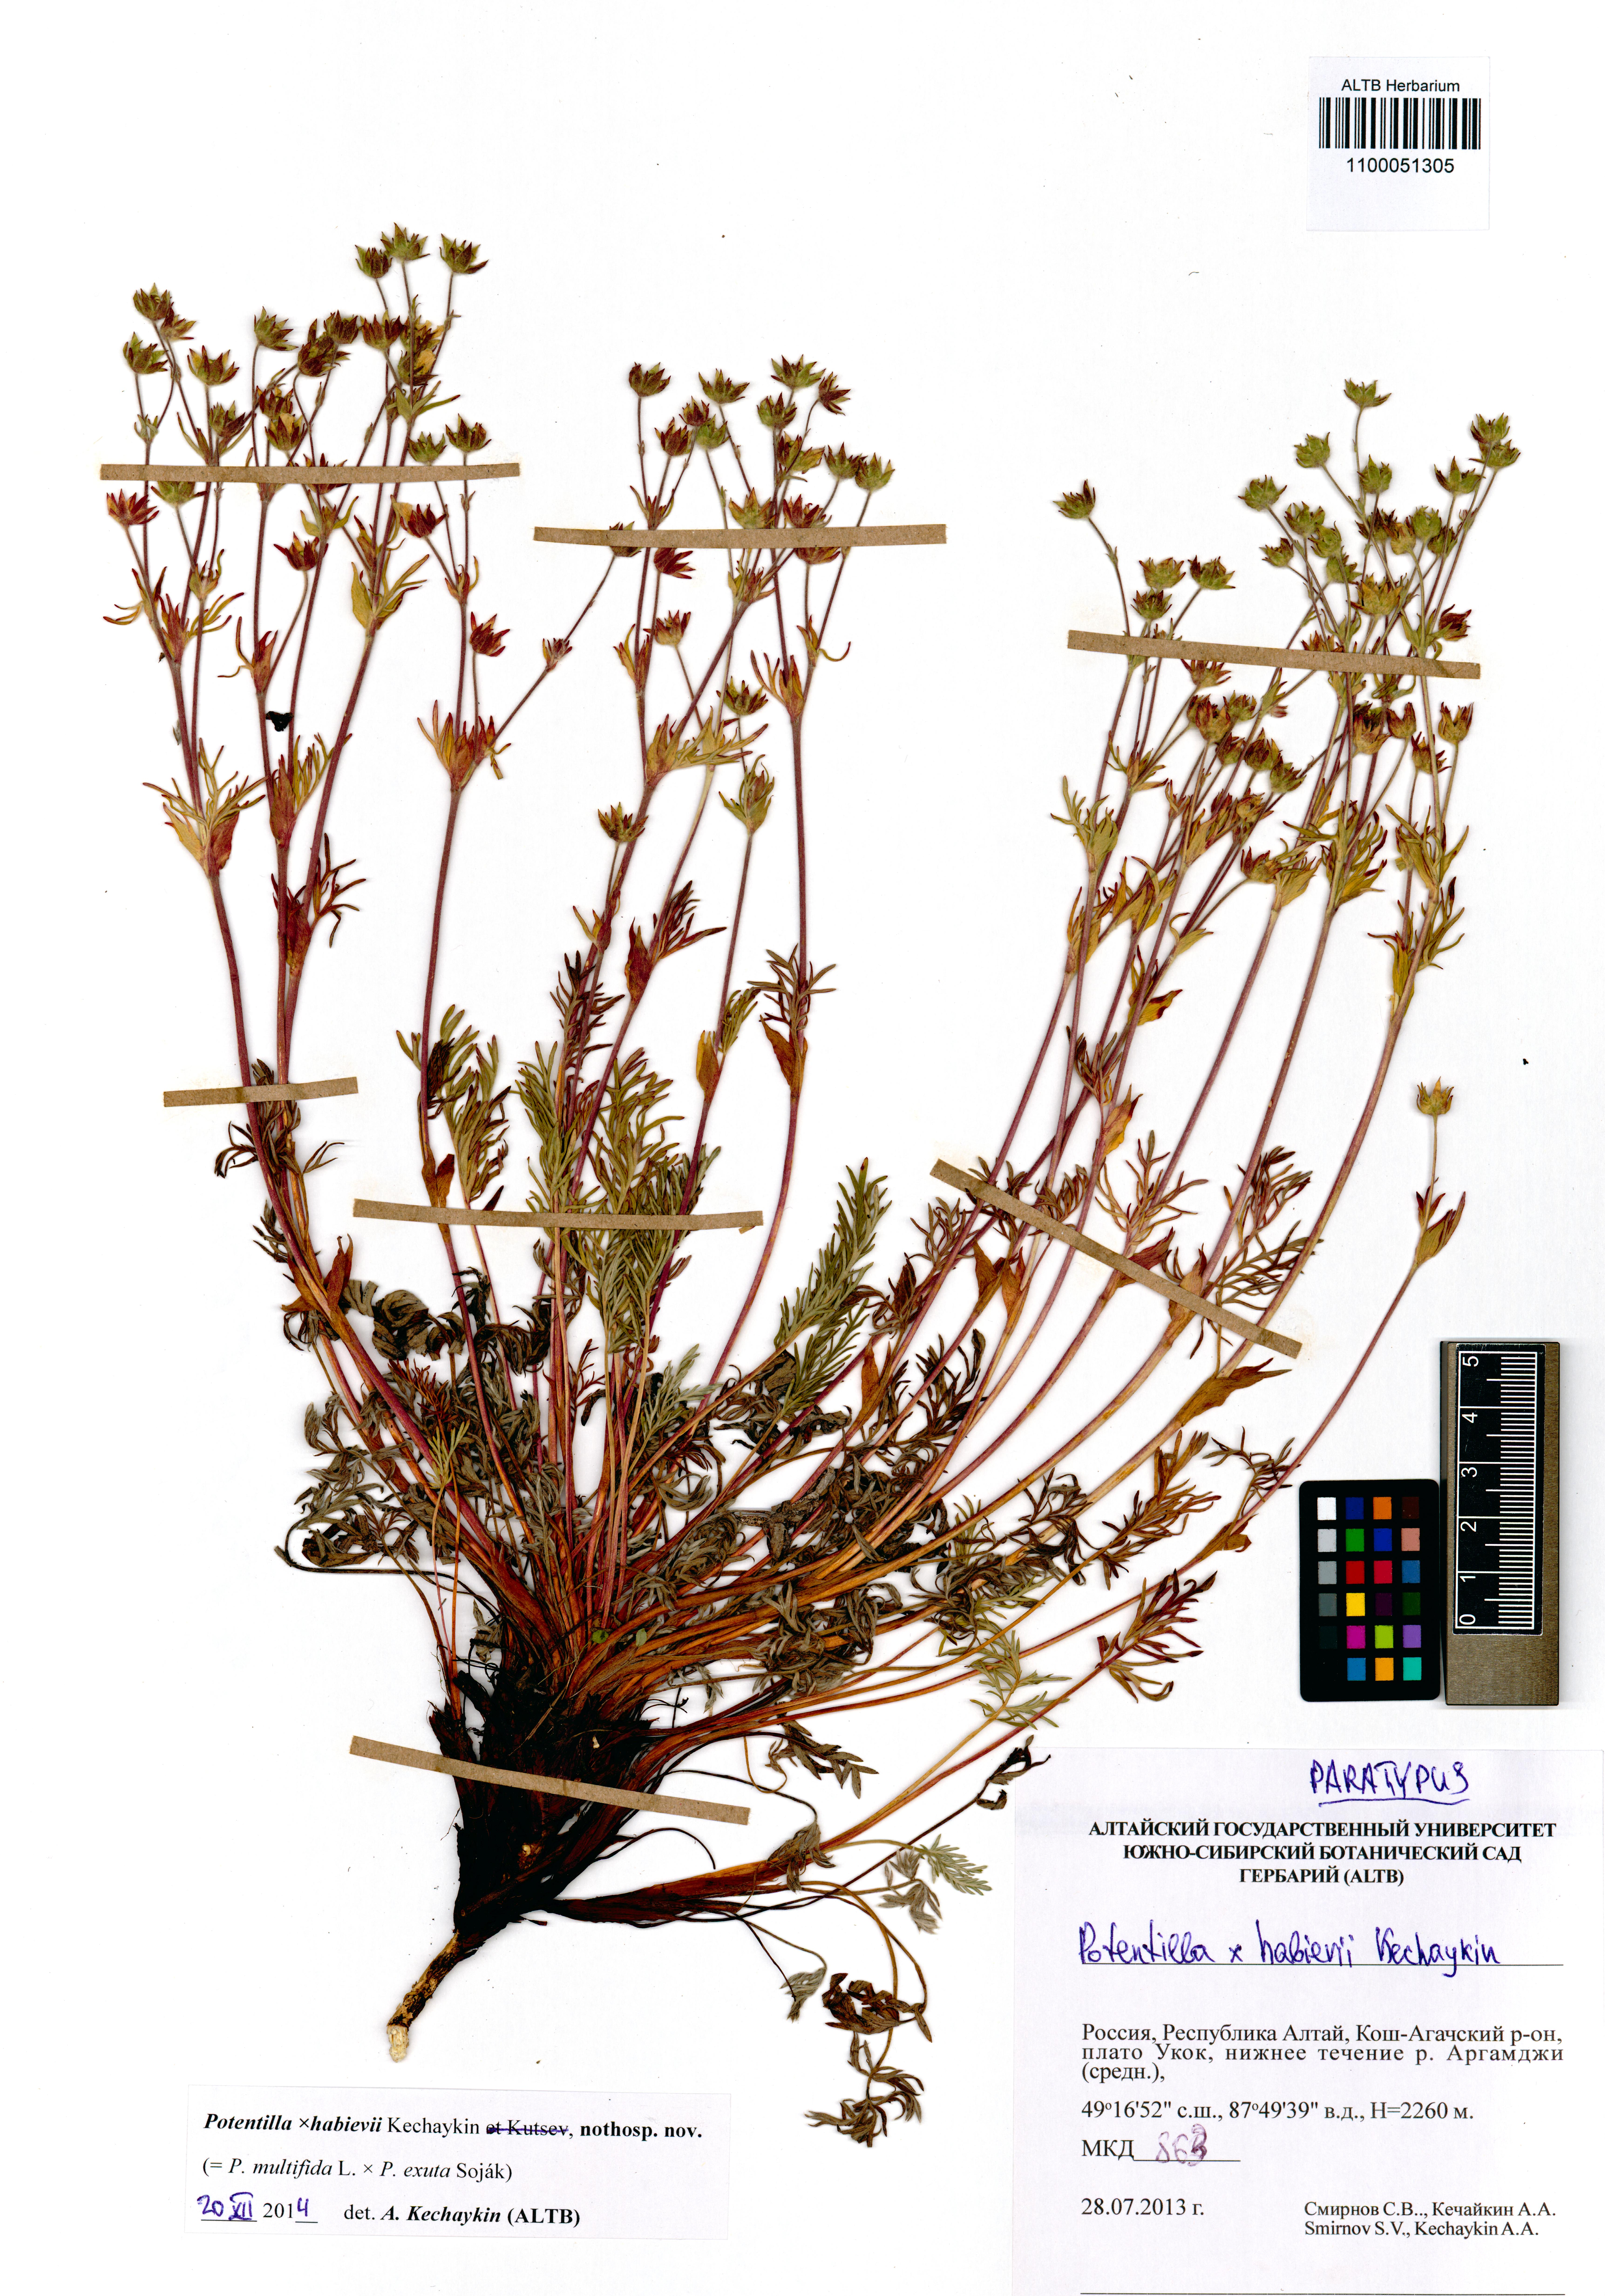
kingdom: Plantae
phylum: Tracheophyta
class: Magnoliopsida
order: Rosales
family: Rosaceae
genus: Potentilla
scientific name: Potentilla habievii
